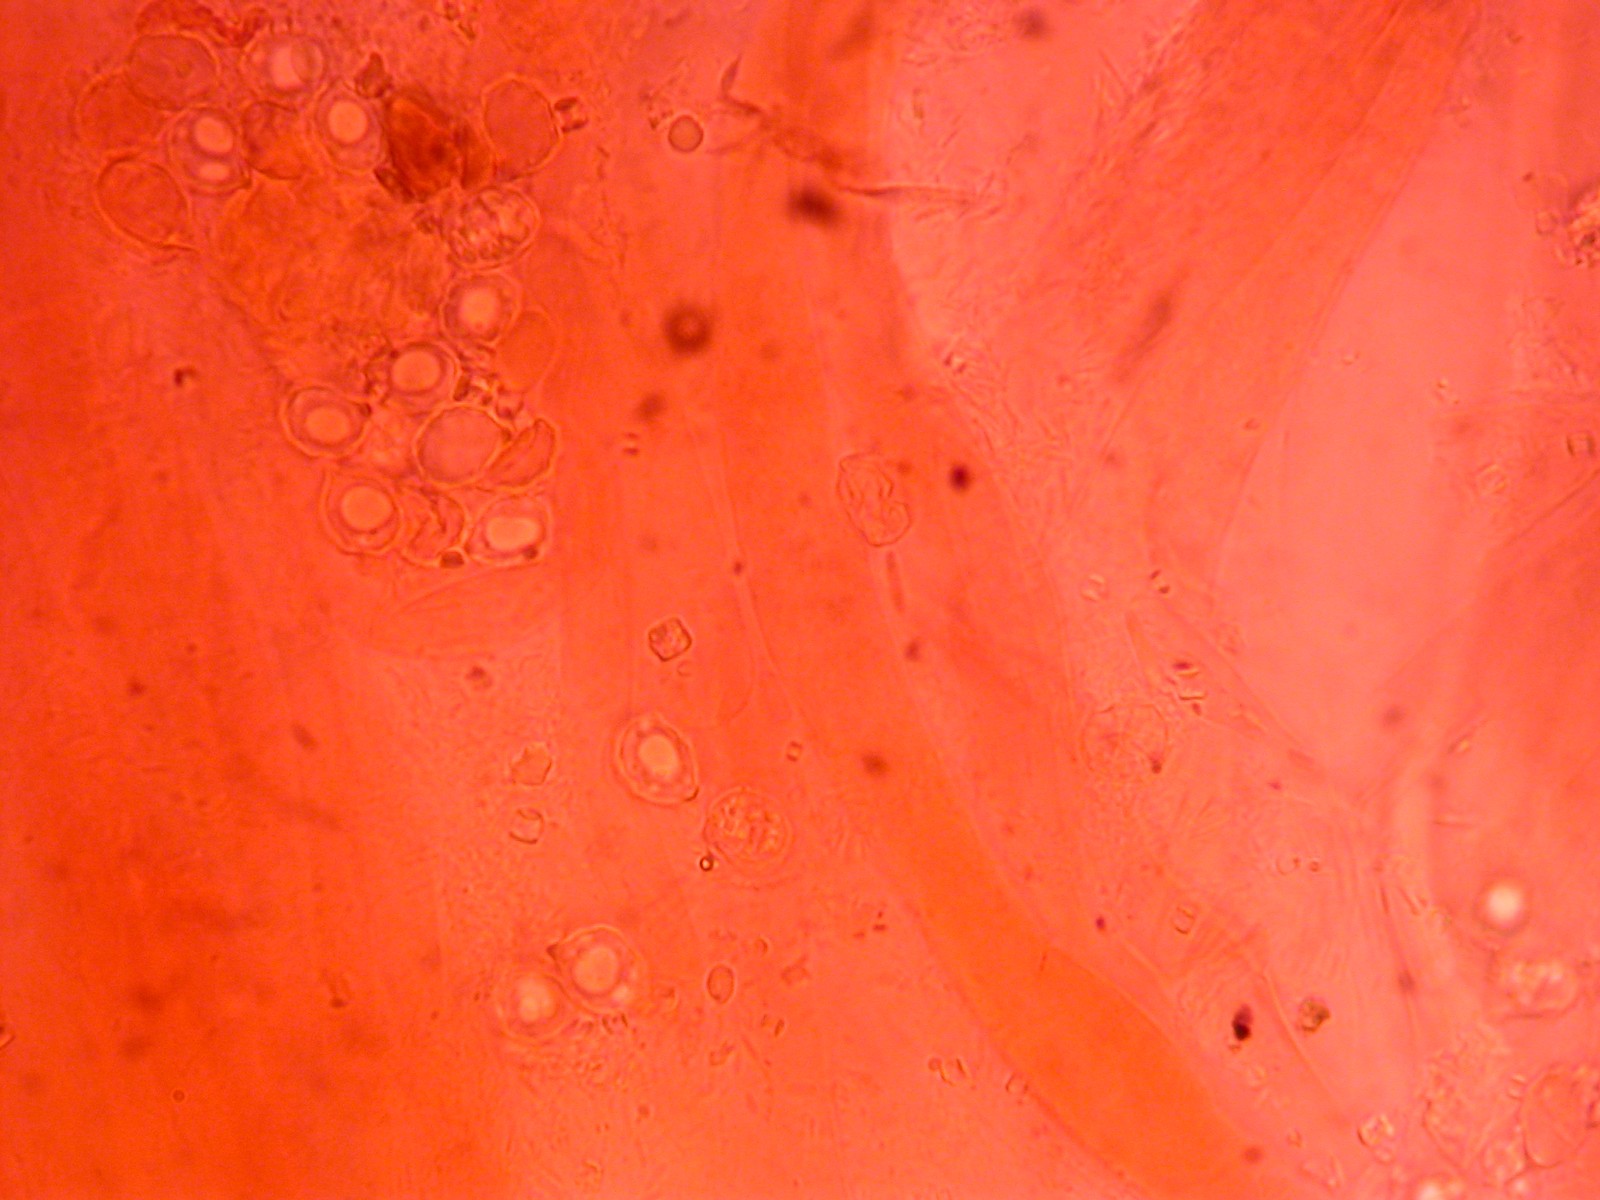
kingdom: Fungi
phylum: Basidiomycota
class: Agaricomycetes
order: Agaricales
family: Entolomataceae
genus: Entocybe
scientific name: Entocybe turbida
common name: plantage-rødblad
